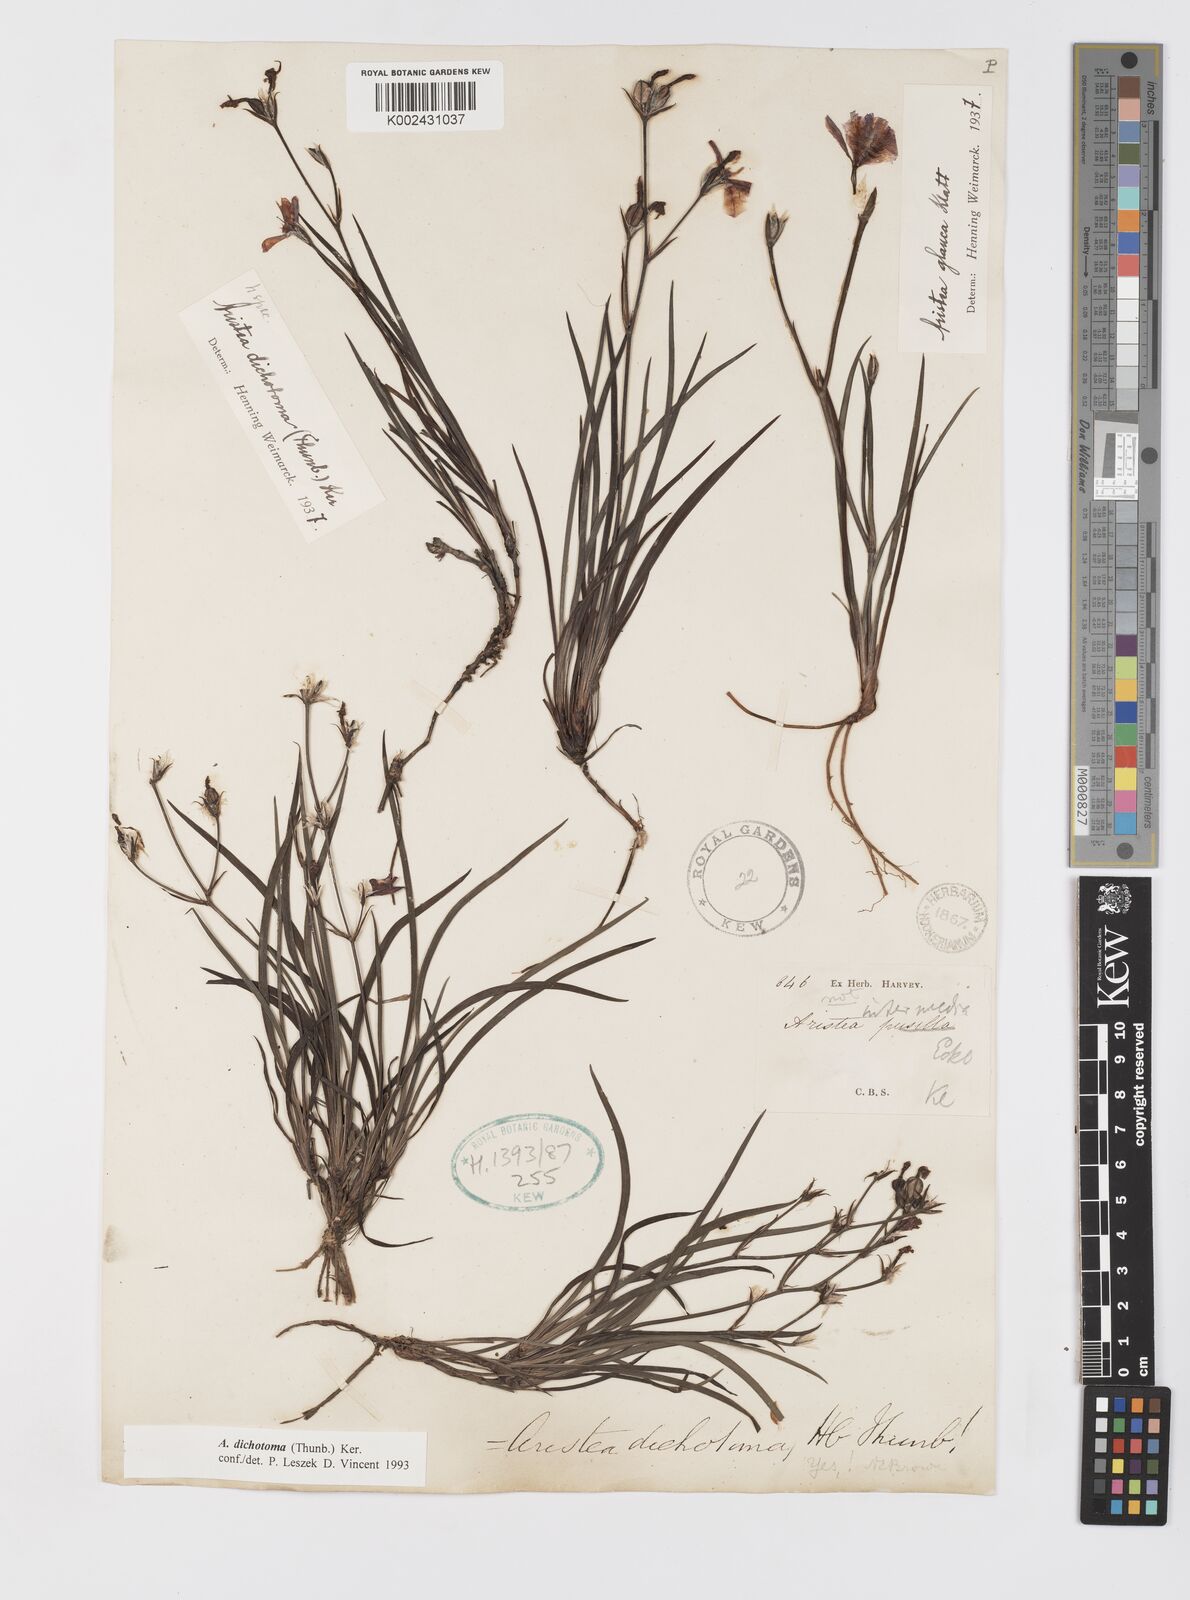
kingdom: Plantae
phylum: Tracheophyta
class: Liliopsida
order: Asparagales
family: Iridaceae
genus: Aristea
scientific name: Aristea dichotoma
